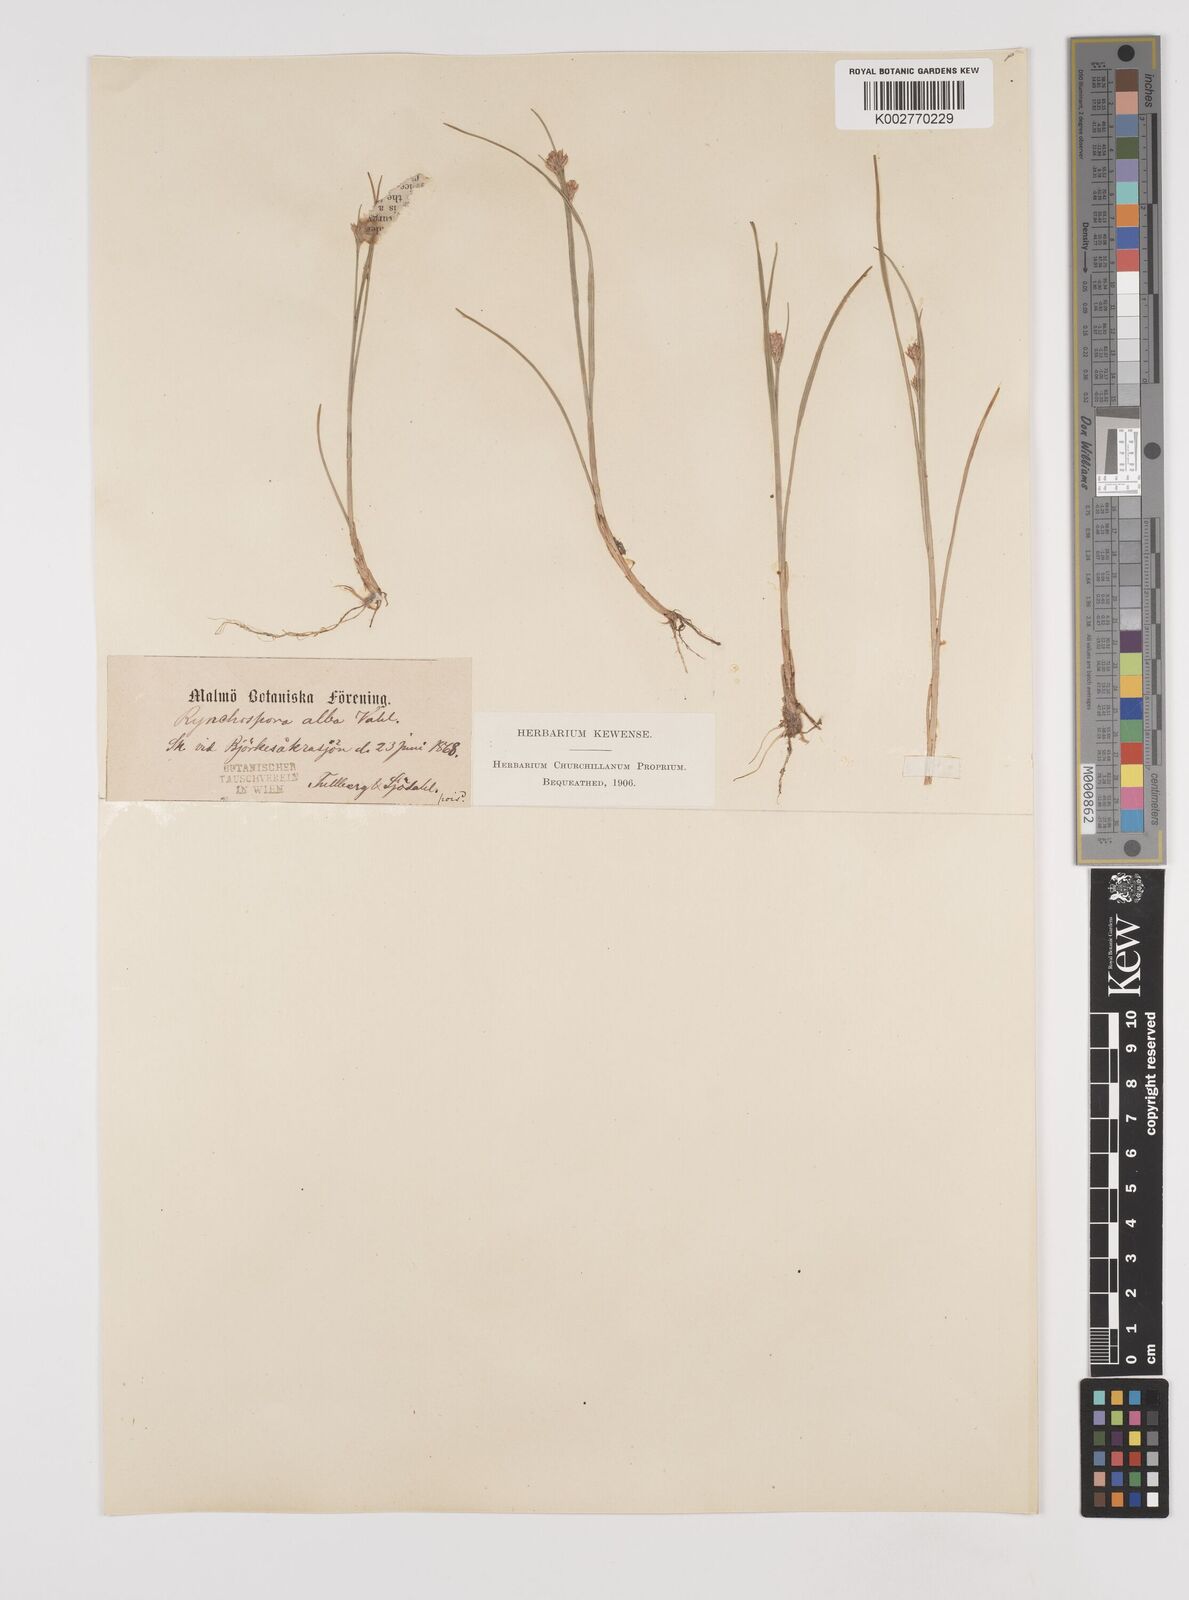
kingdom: Plantae
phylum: Tracheophyta
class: Liliopsida
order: Poales
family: Cyperaceae
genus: Rhynchospora
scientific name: Rhynchospora alba
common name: White beak-sedge
